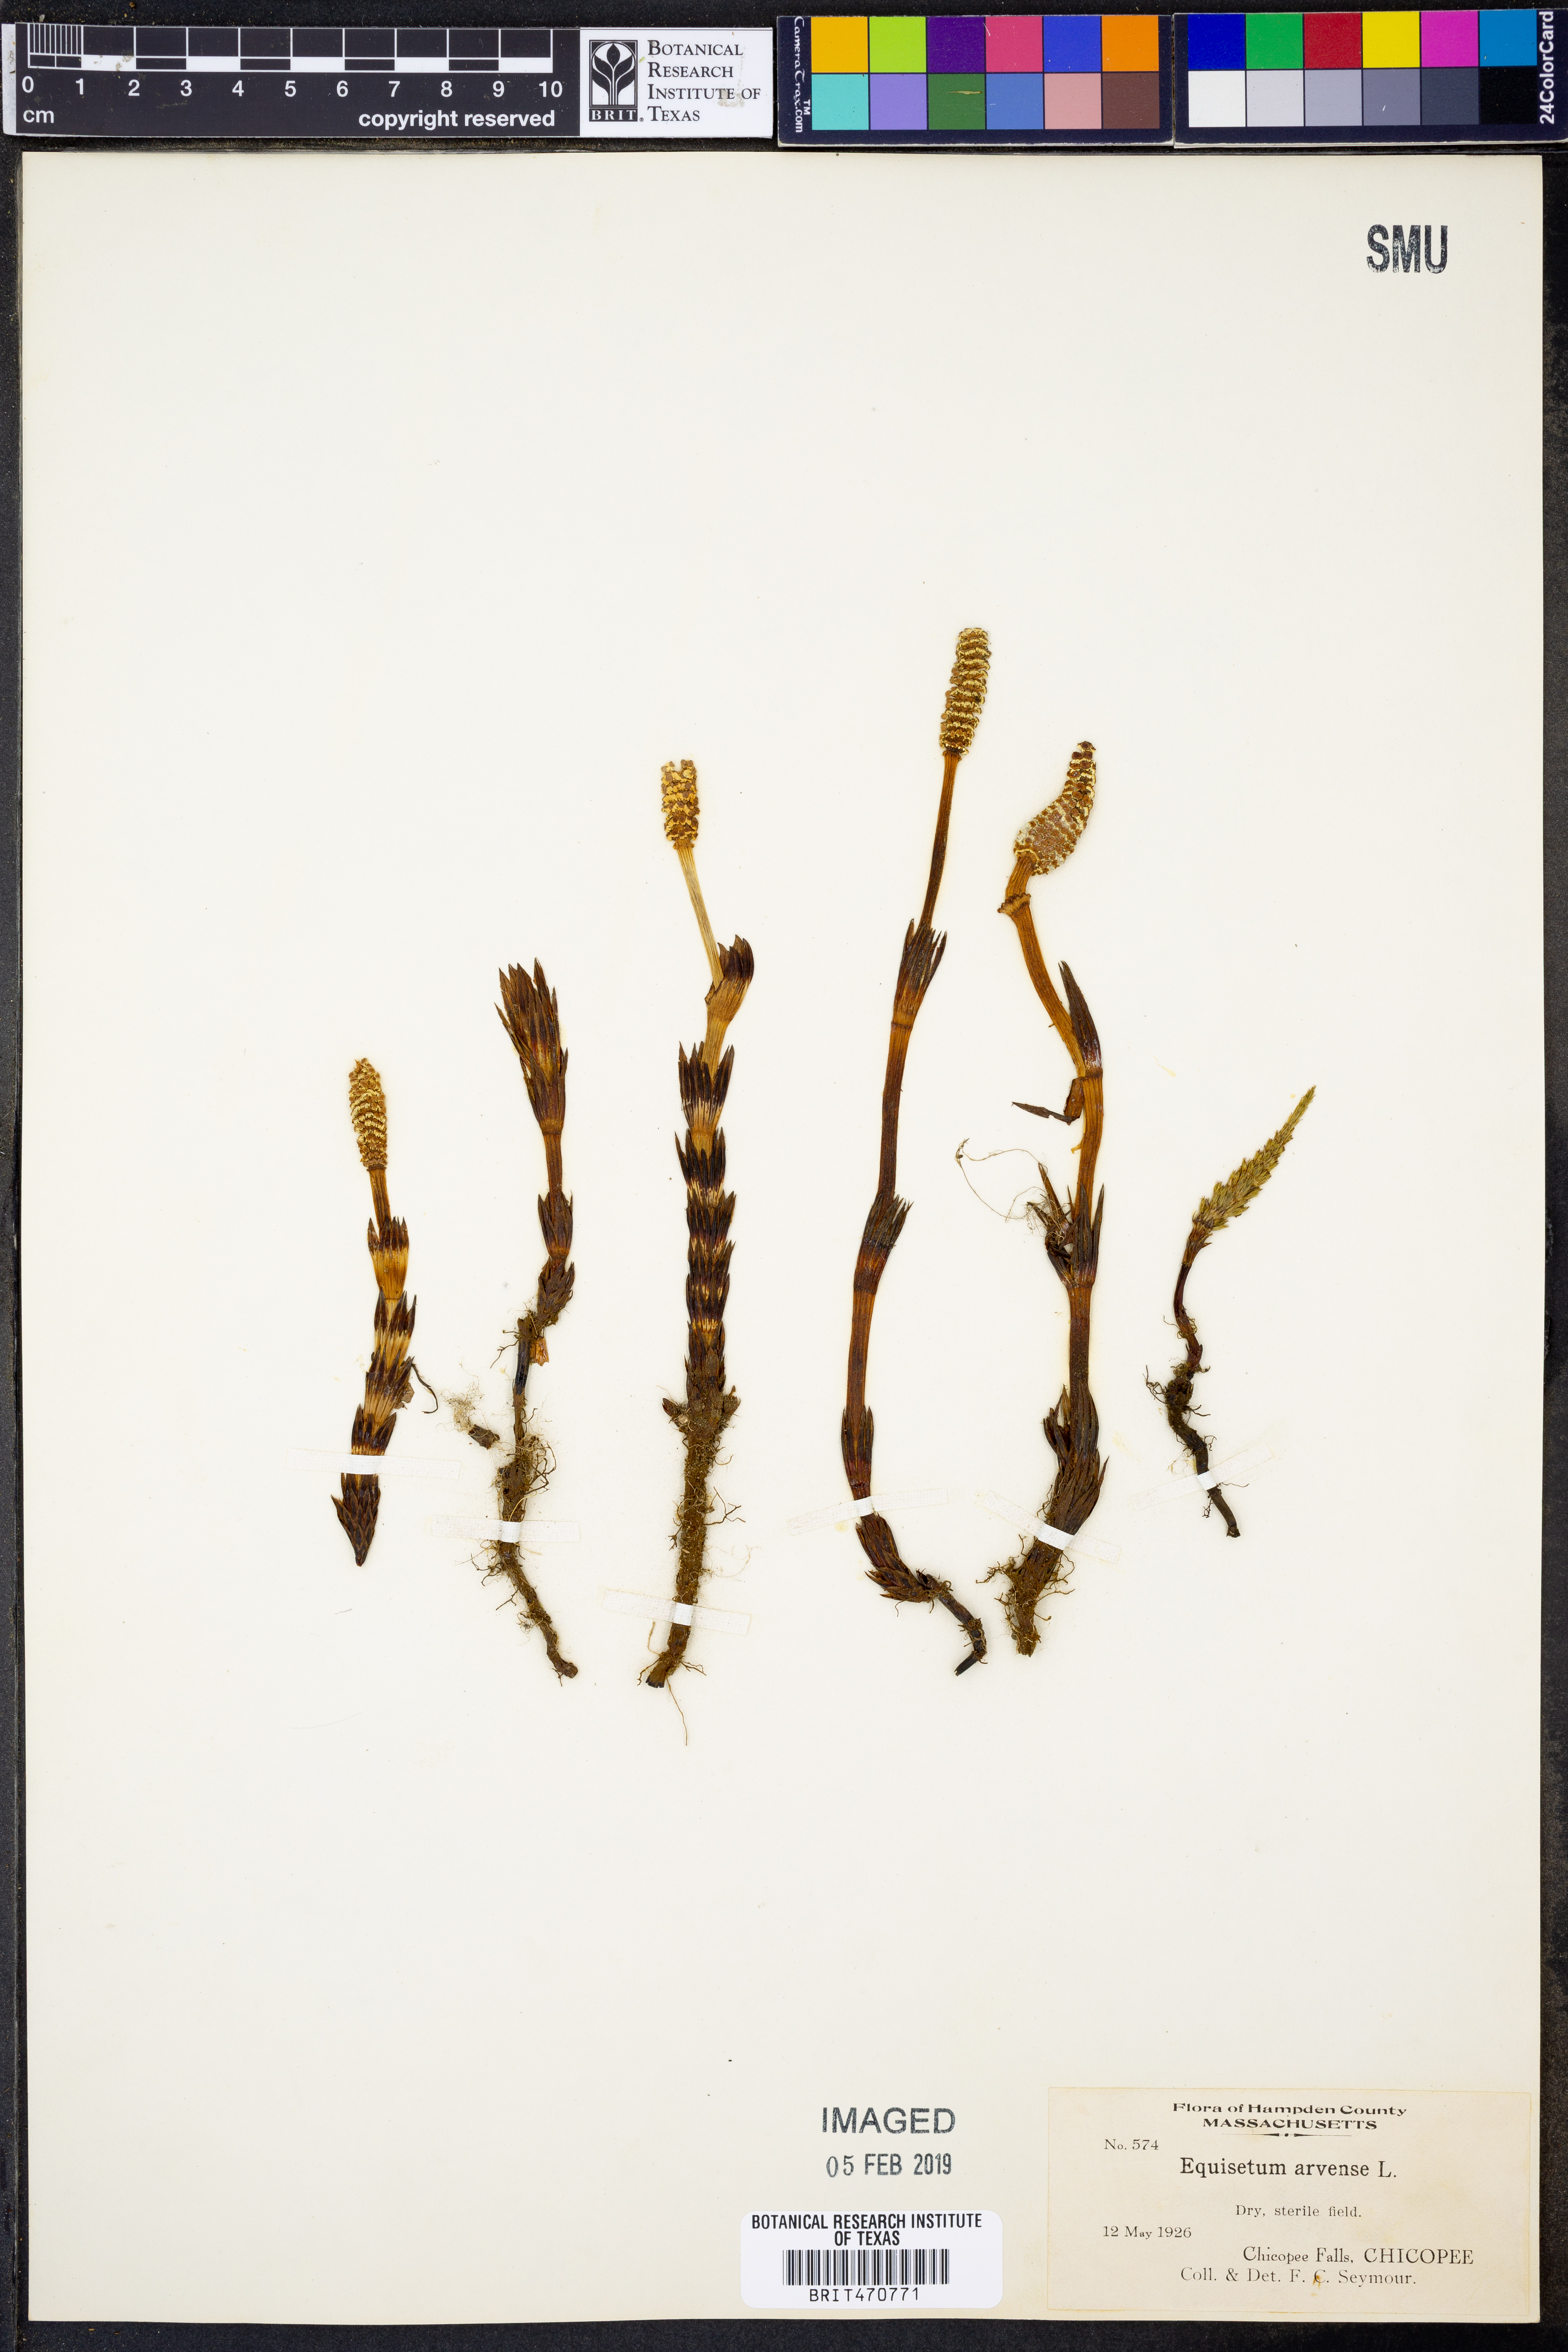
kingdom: Plantae
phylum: Tracheophyta
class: Polypodiopsida
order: Equisetales
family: Equisetaceae
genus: Equisetum
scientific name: Equisetum arvense
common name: Field horsetail
